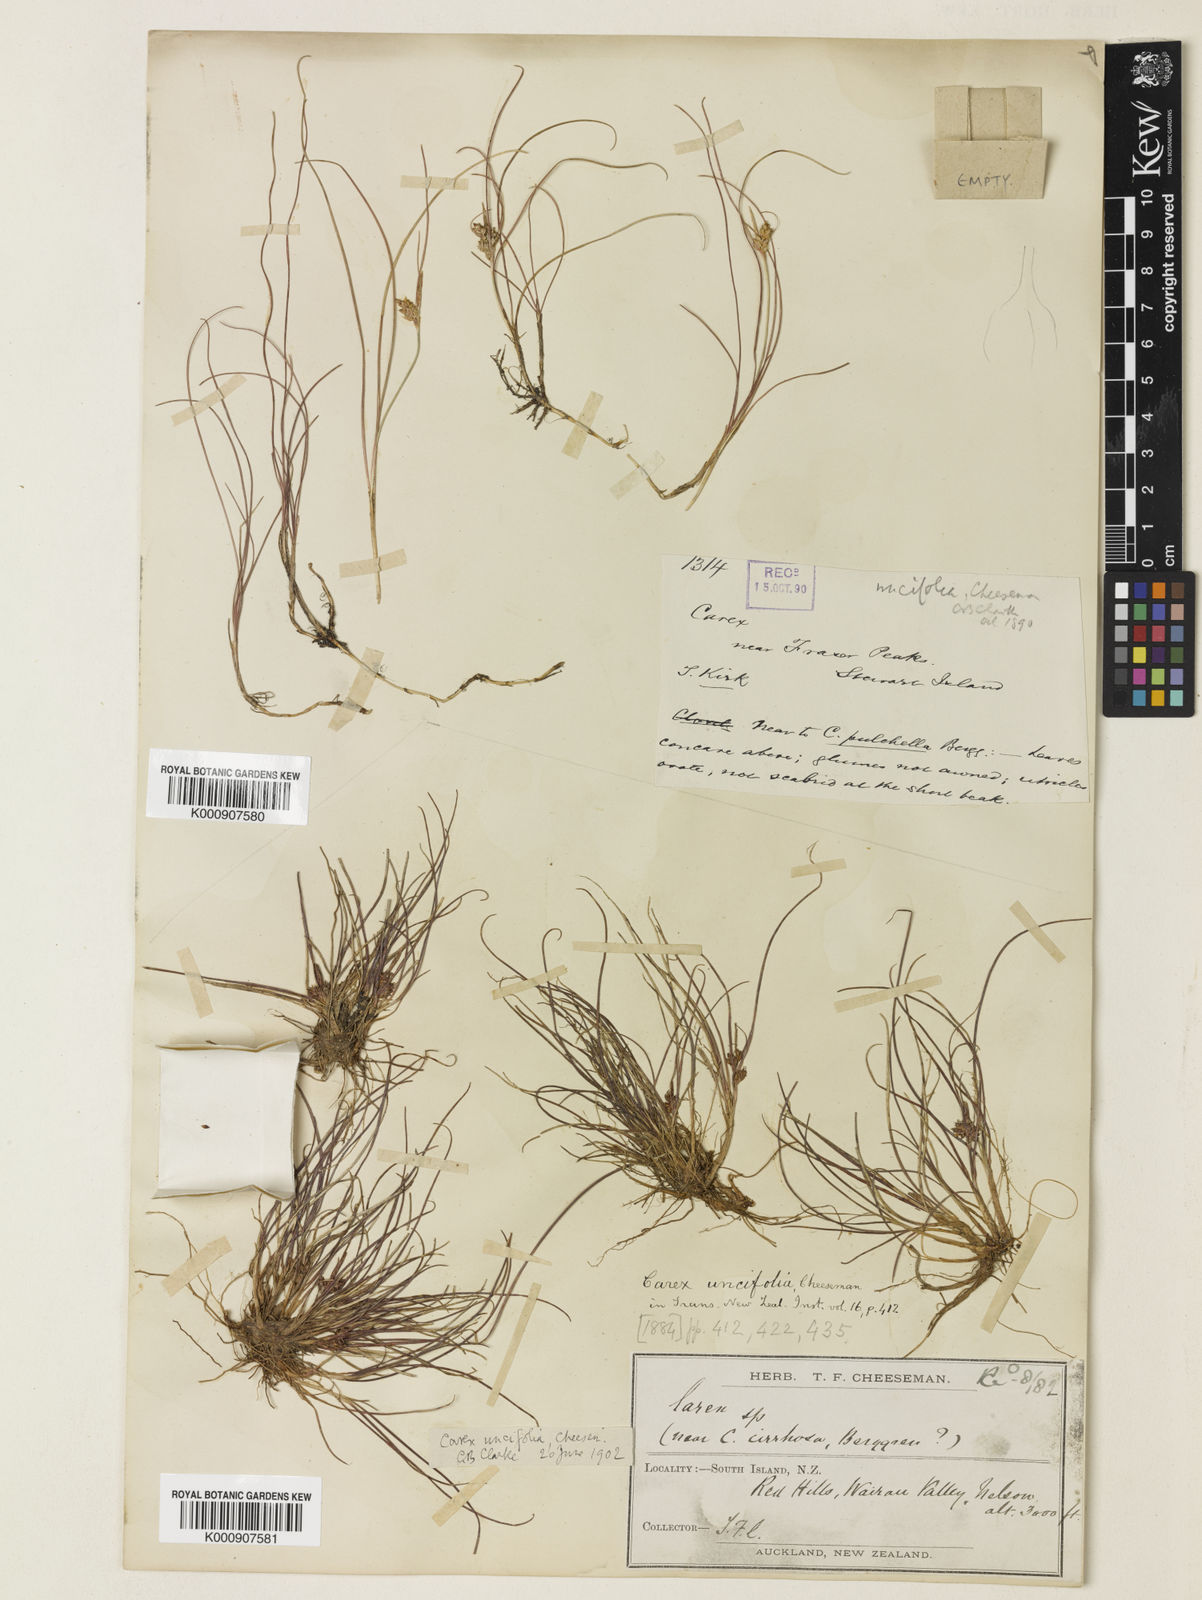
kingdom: Plantae
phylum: Tracheophyta
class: Liliopsida
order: Poales
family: Cyperaceae
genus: Carex
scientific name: Carex uncifolia
